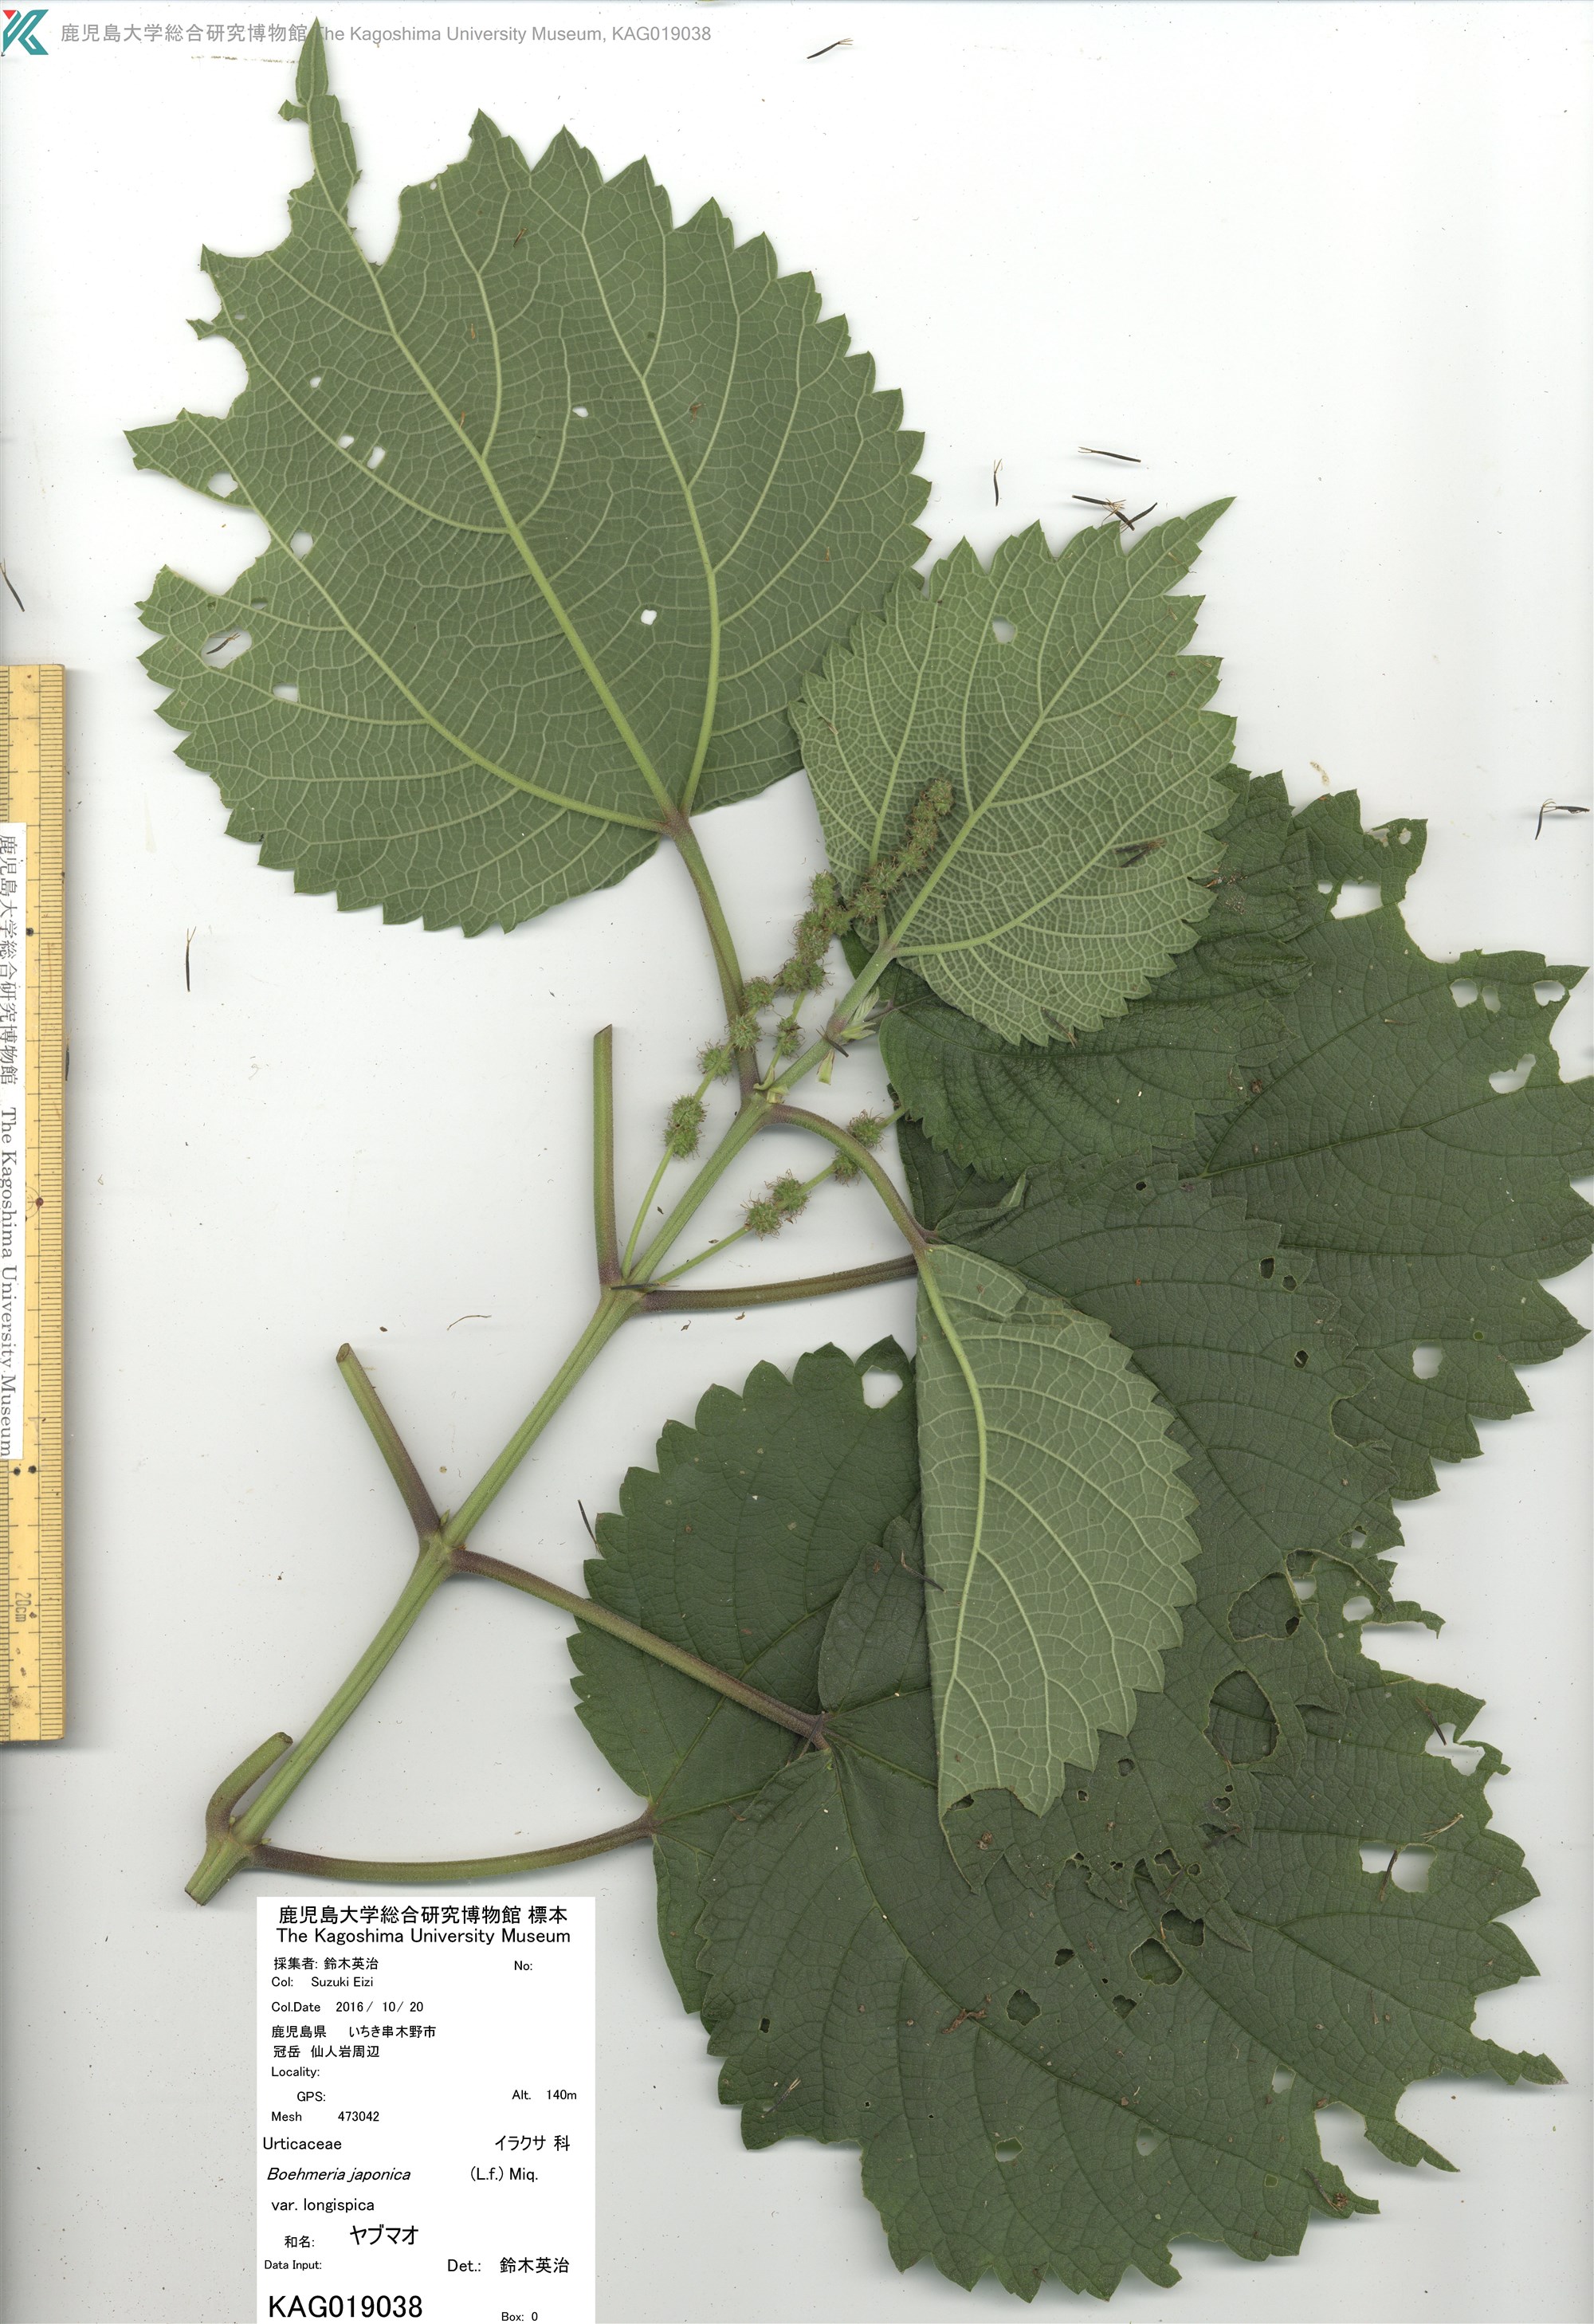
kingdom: Plantae
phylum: Tracheophyta
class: Magnoliopsida
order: Rosales
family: Urticaceae
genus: Boehmeria
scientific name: Boehmeria japonica
